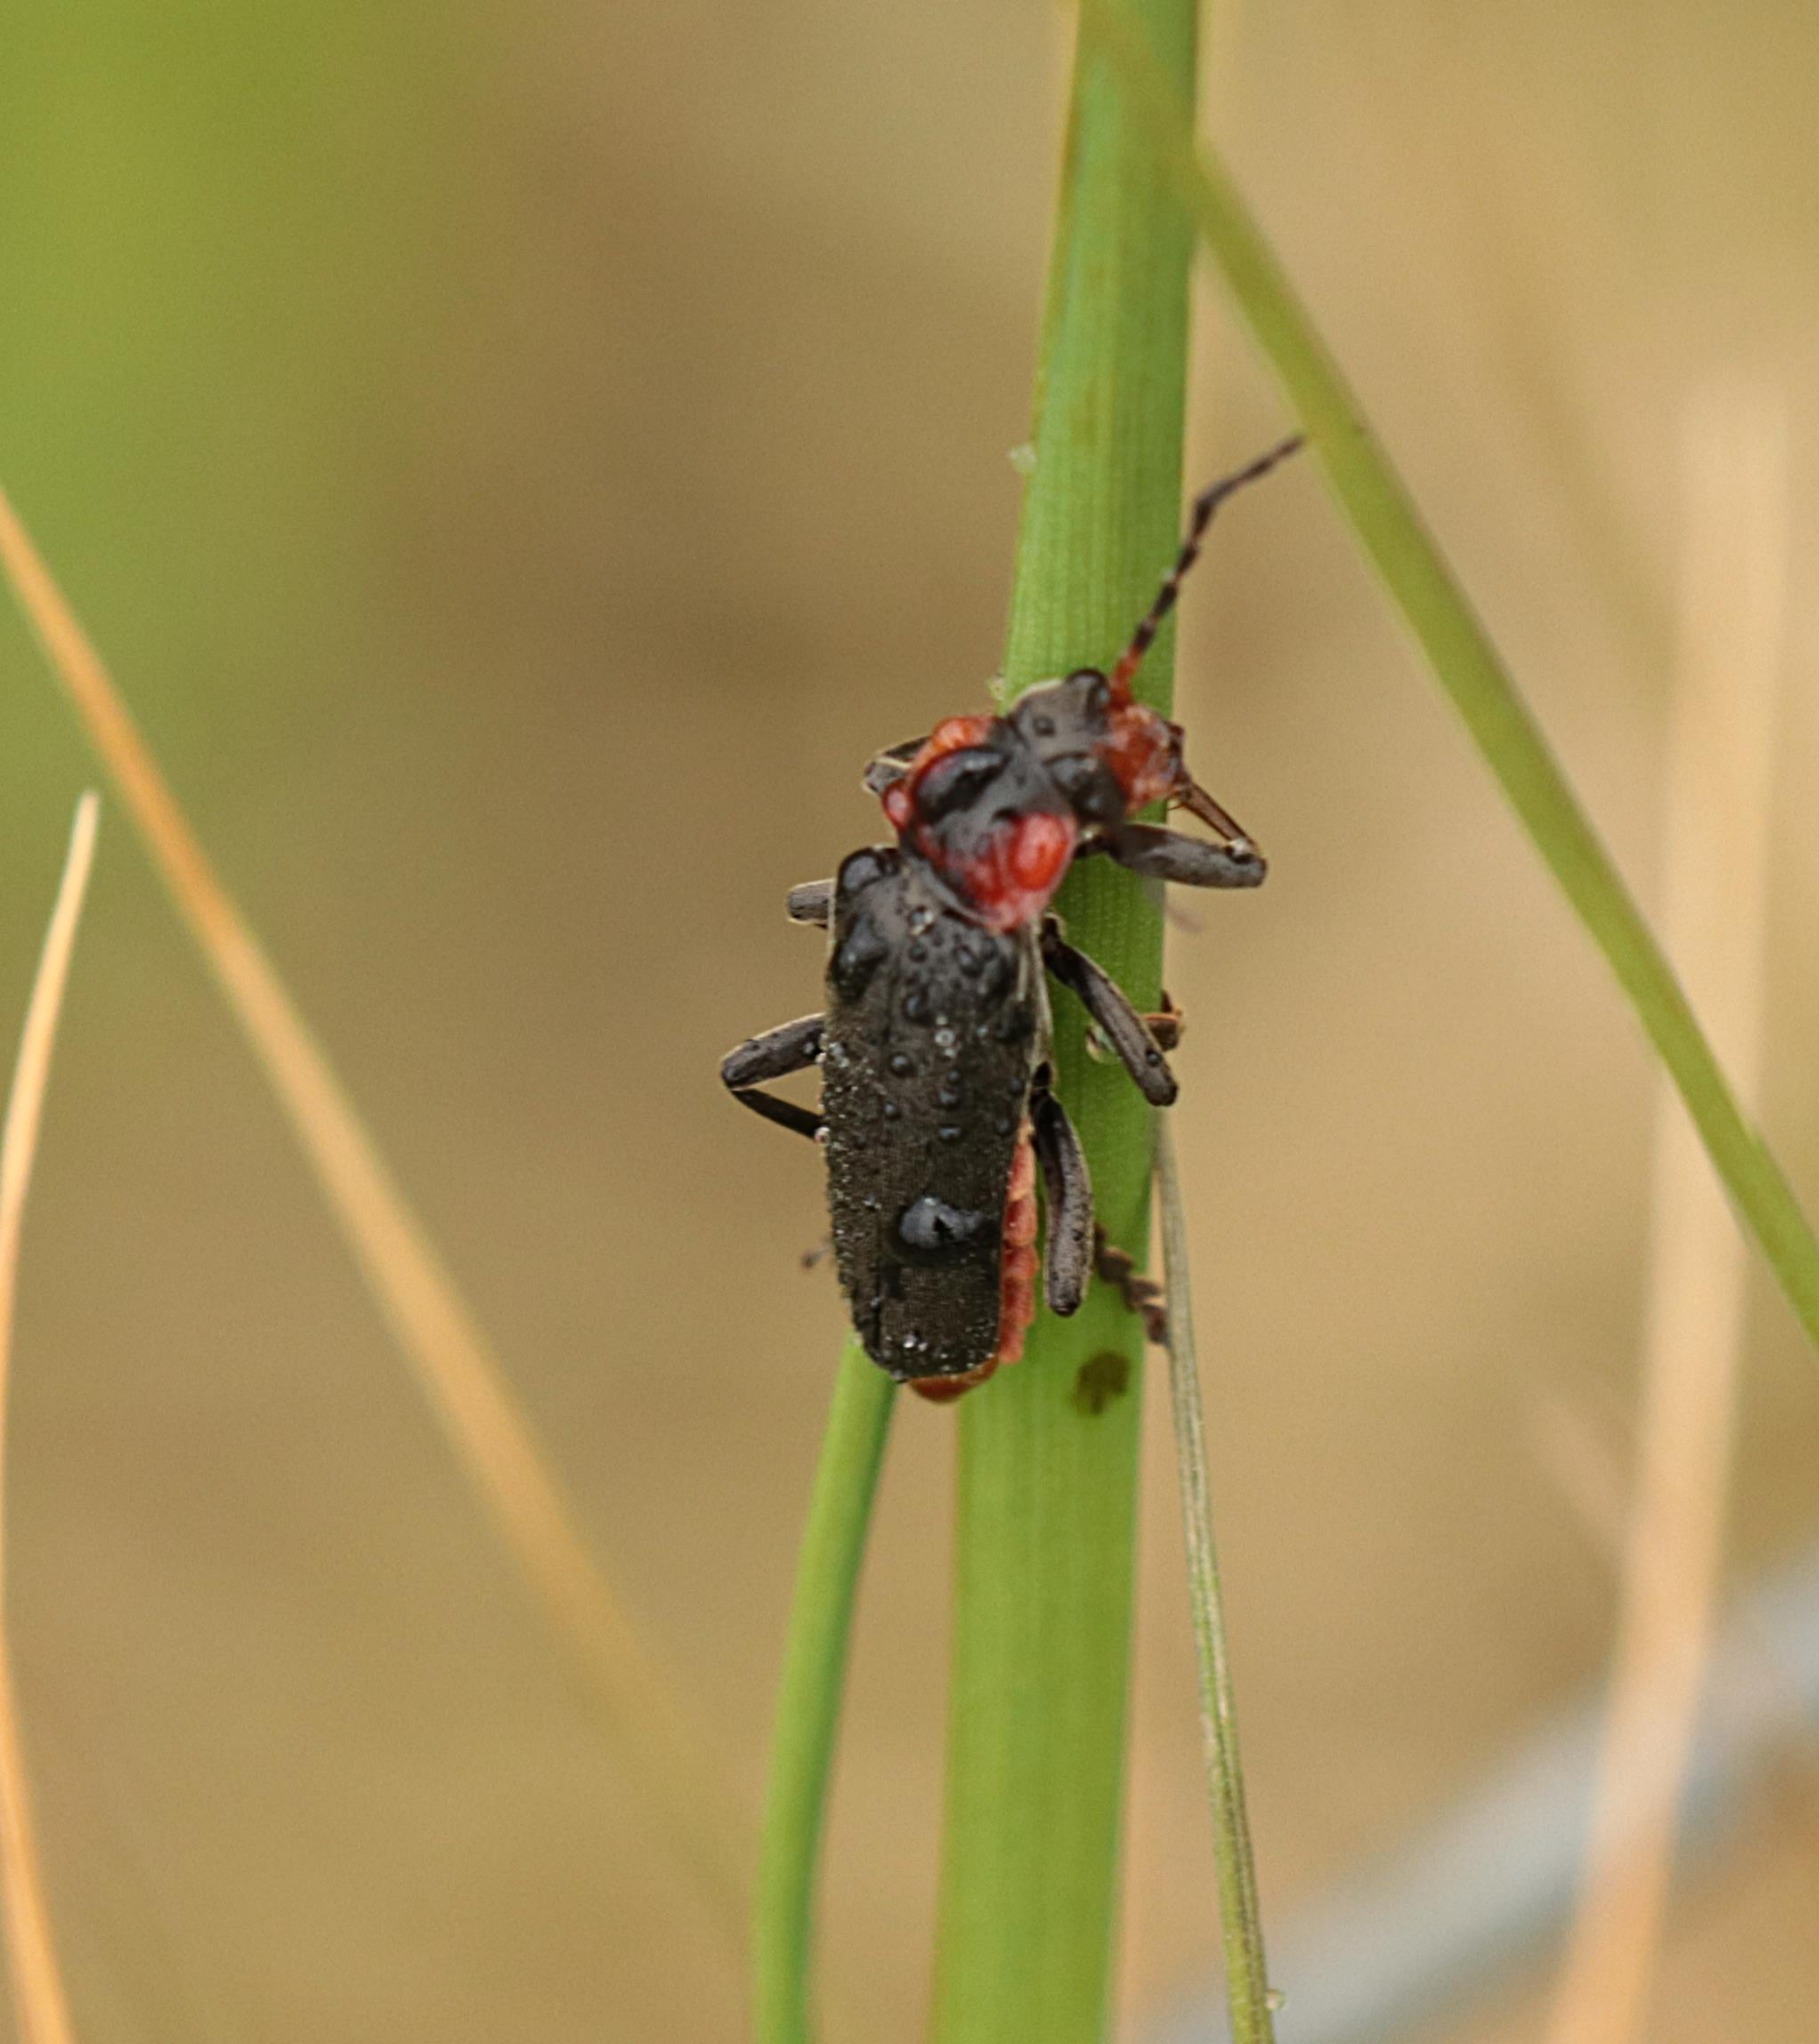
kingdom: Animalia
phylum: Arthropoda
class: Insecta
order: Coleoptera
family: Cantharidae
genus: Cantharis
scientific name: Cantharis fusca
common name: Stor blødvinge
